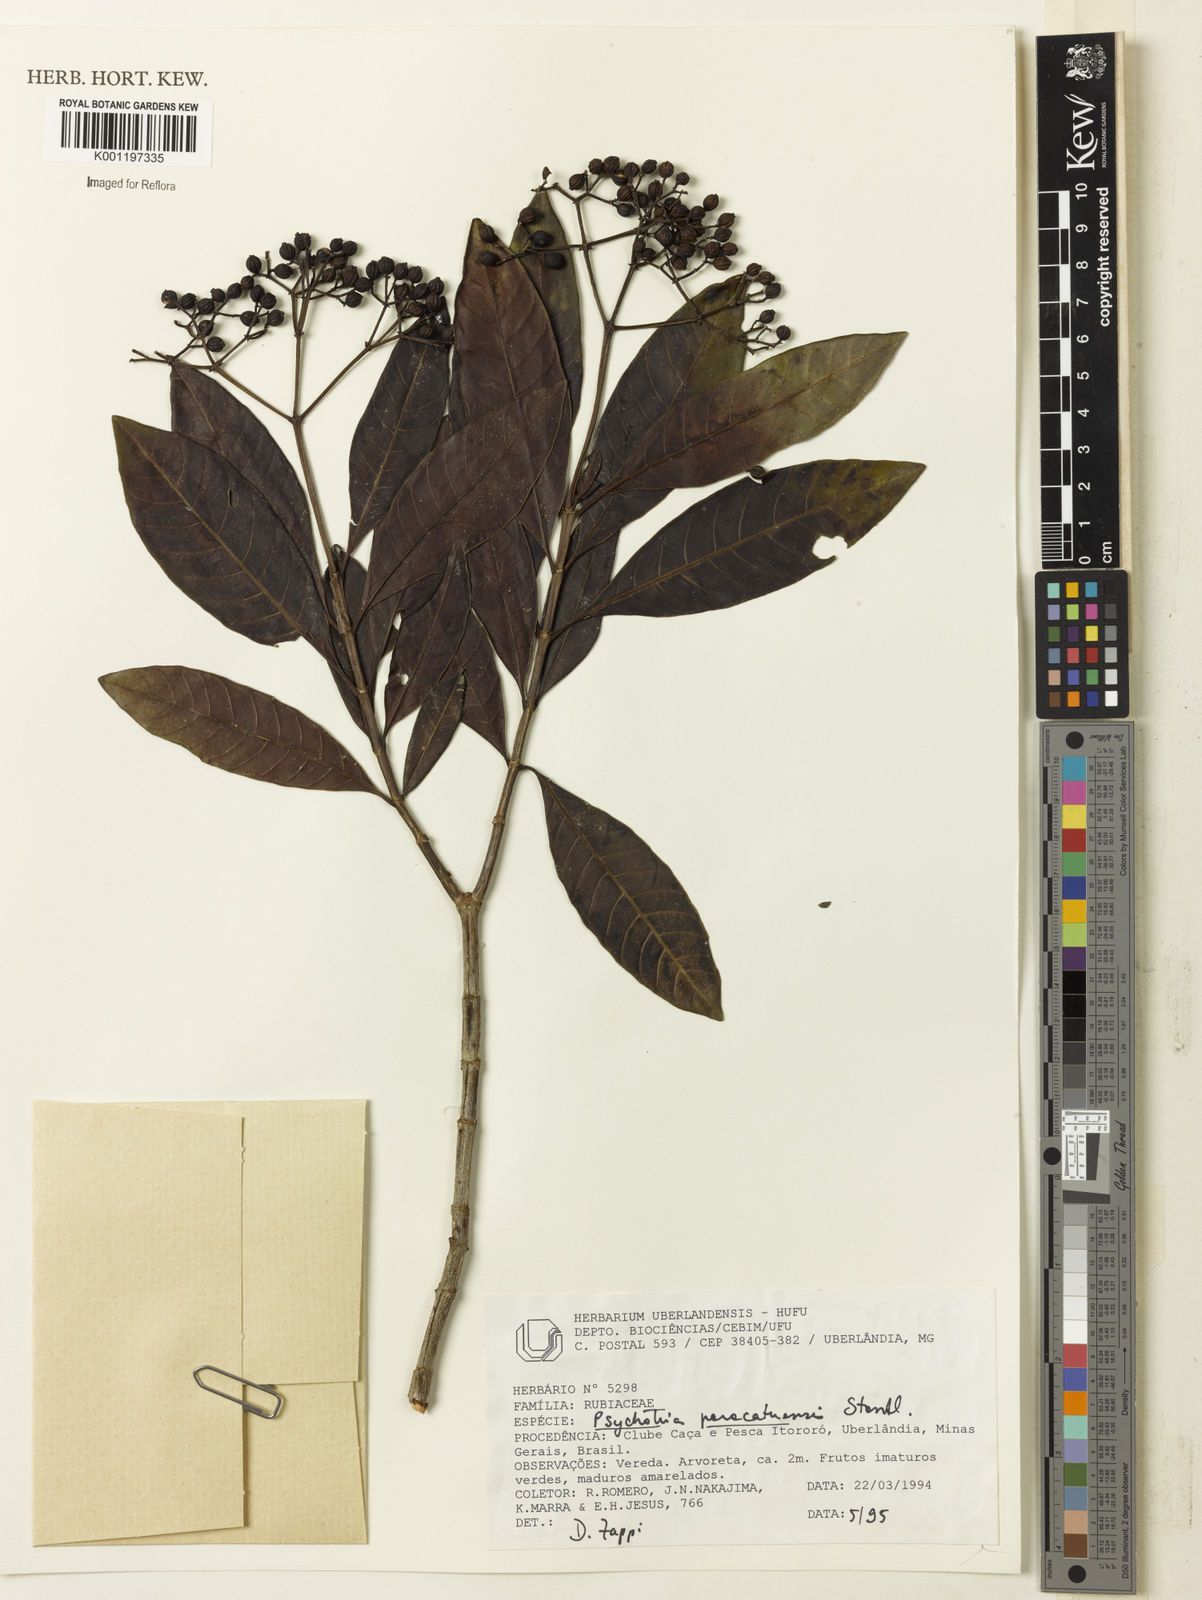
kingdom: Plantae
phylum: Tracheophyta
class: Magnoliopsida
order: Gentianales
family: Rubiaceae
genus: Psychotria
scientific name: Psychotria anceps
